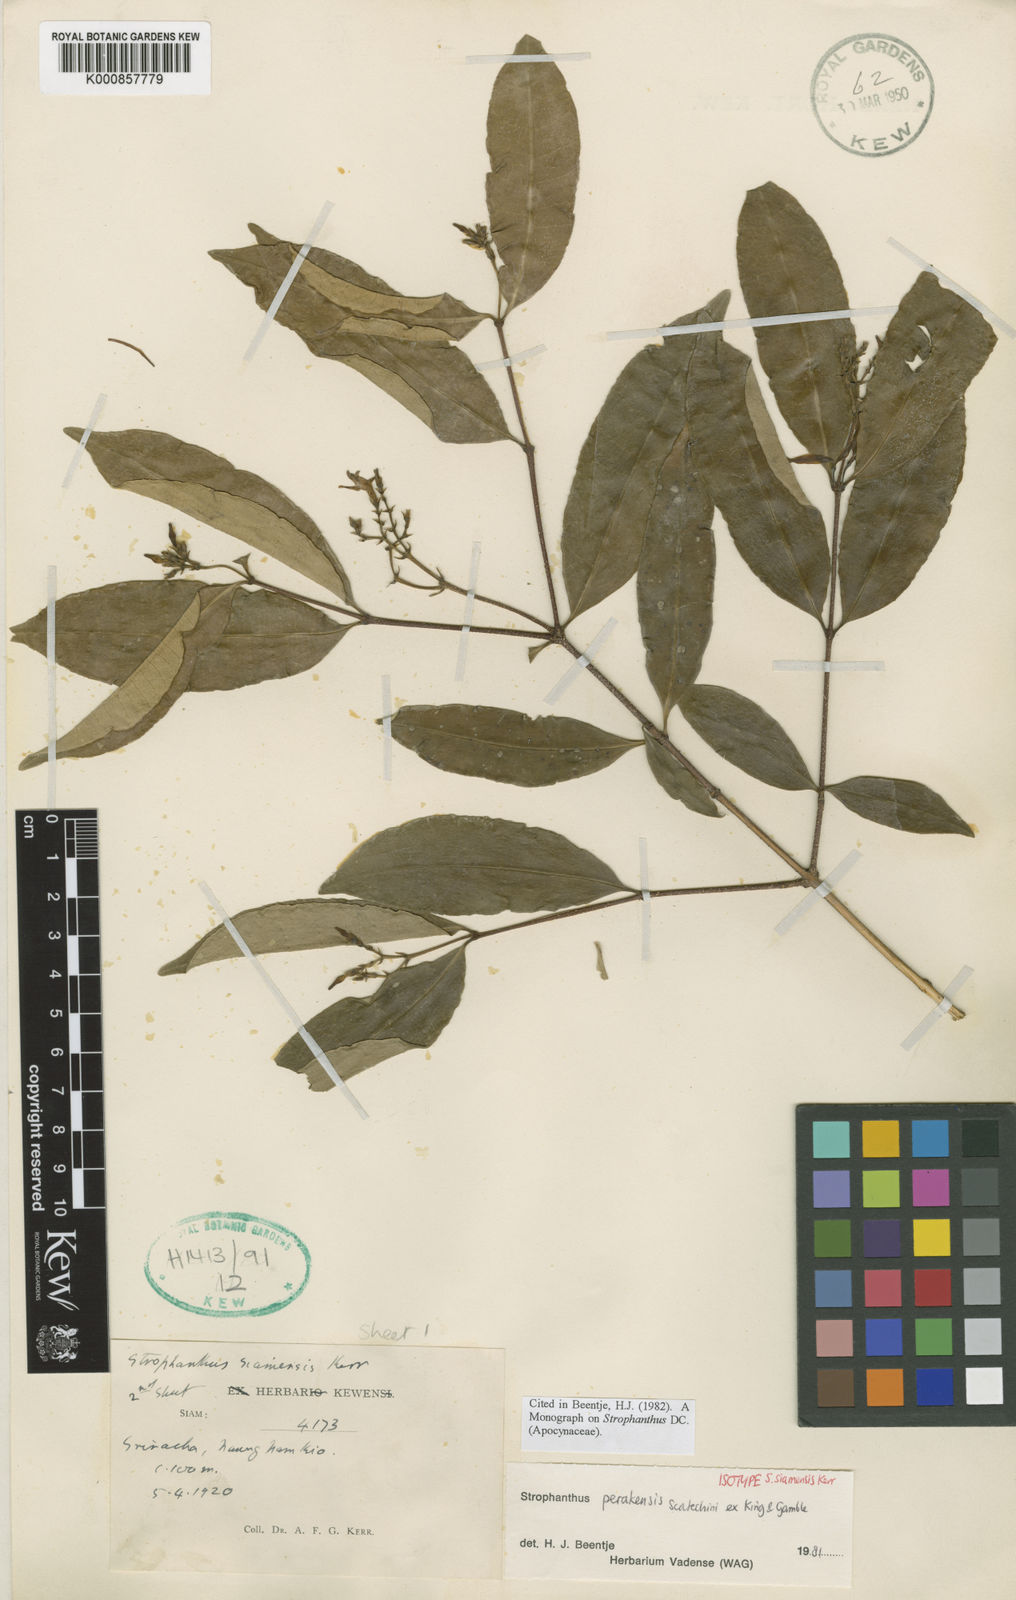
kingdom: Plantae
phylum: Tracheophyta
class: Magnoliopsida
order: Gentianales
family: Apocynaceae
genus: Strophanthus
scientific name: Strophanthus perakensis
